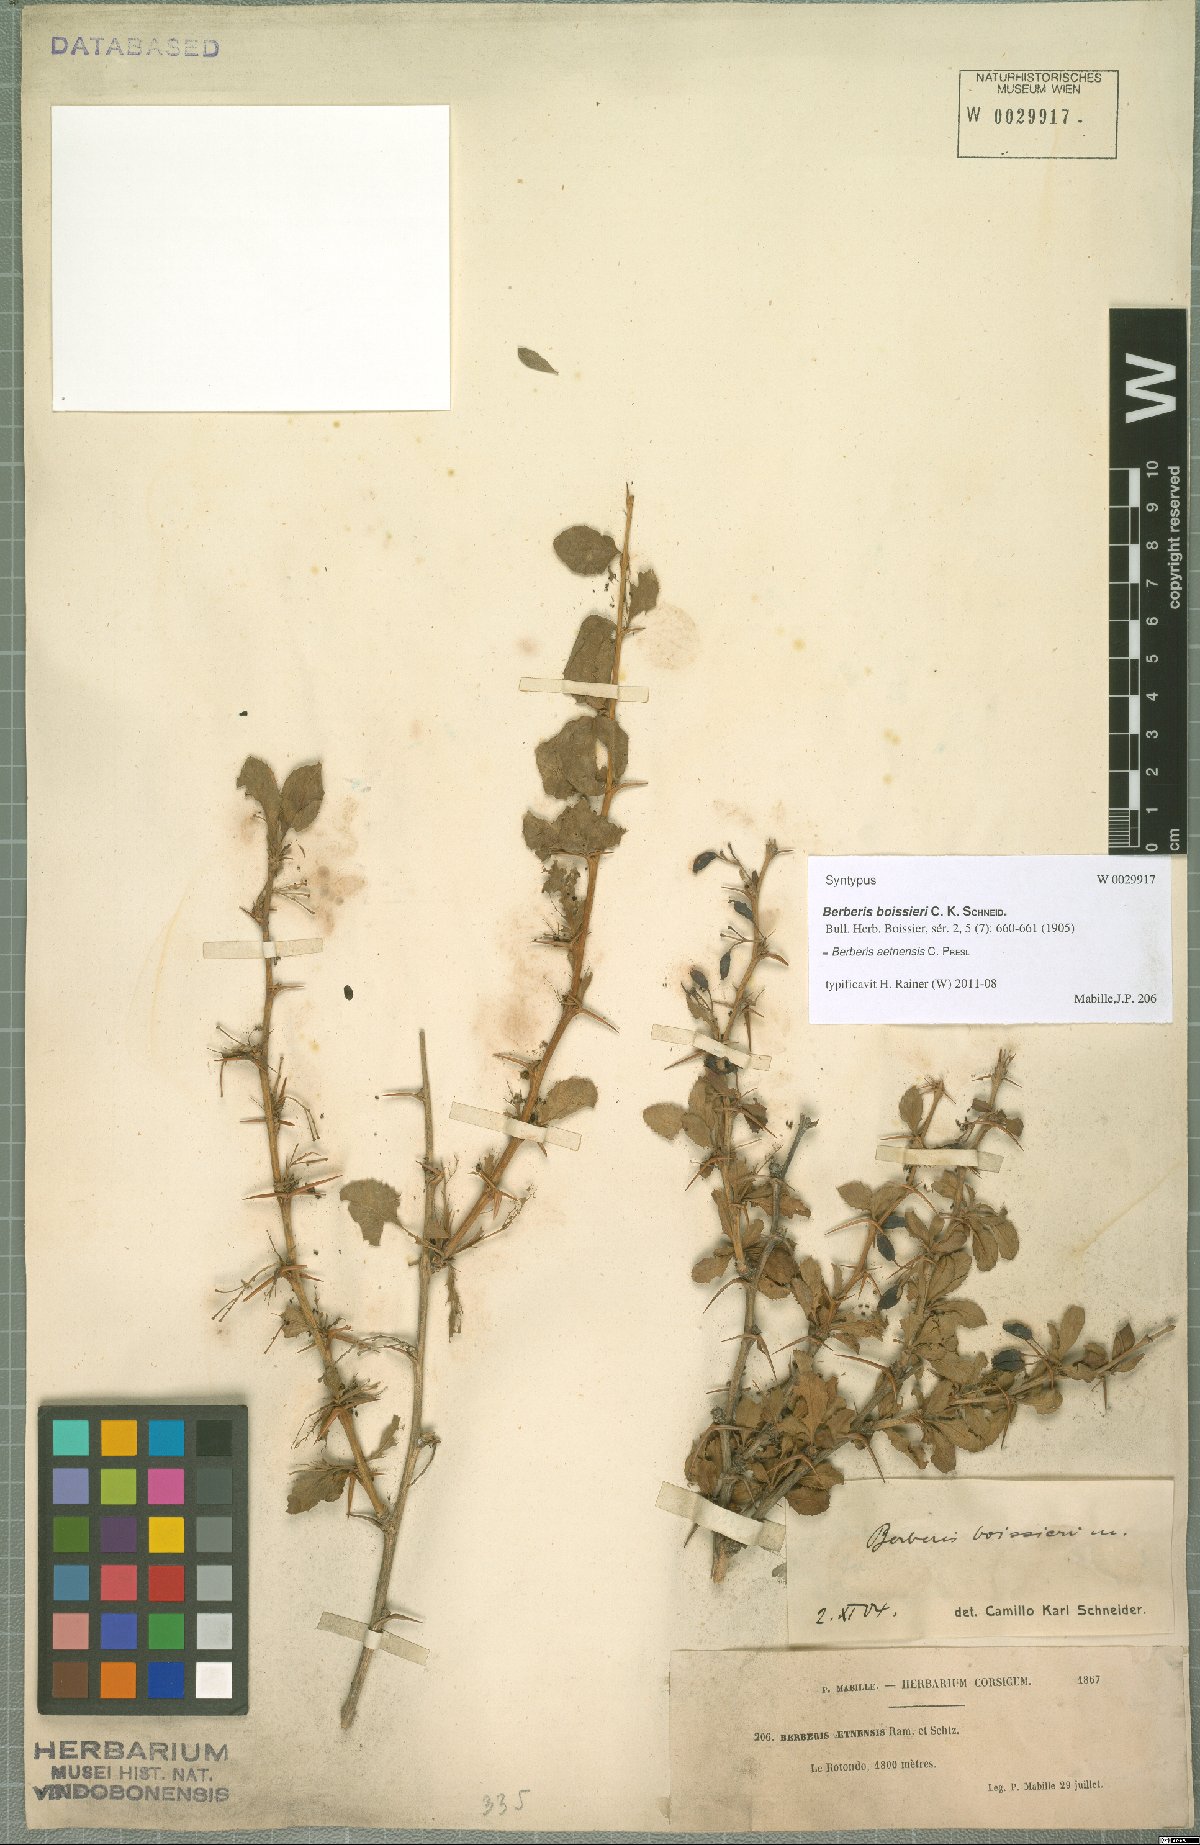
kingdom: Plantae
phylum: Tracheophyta
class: Magnoliopsida
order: Ranunculales
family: Berberidaceae
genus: Berberis
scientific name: Berberis aetnensis
